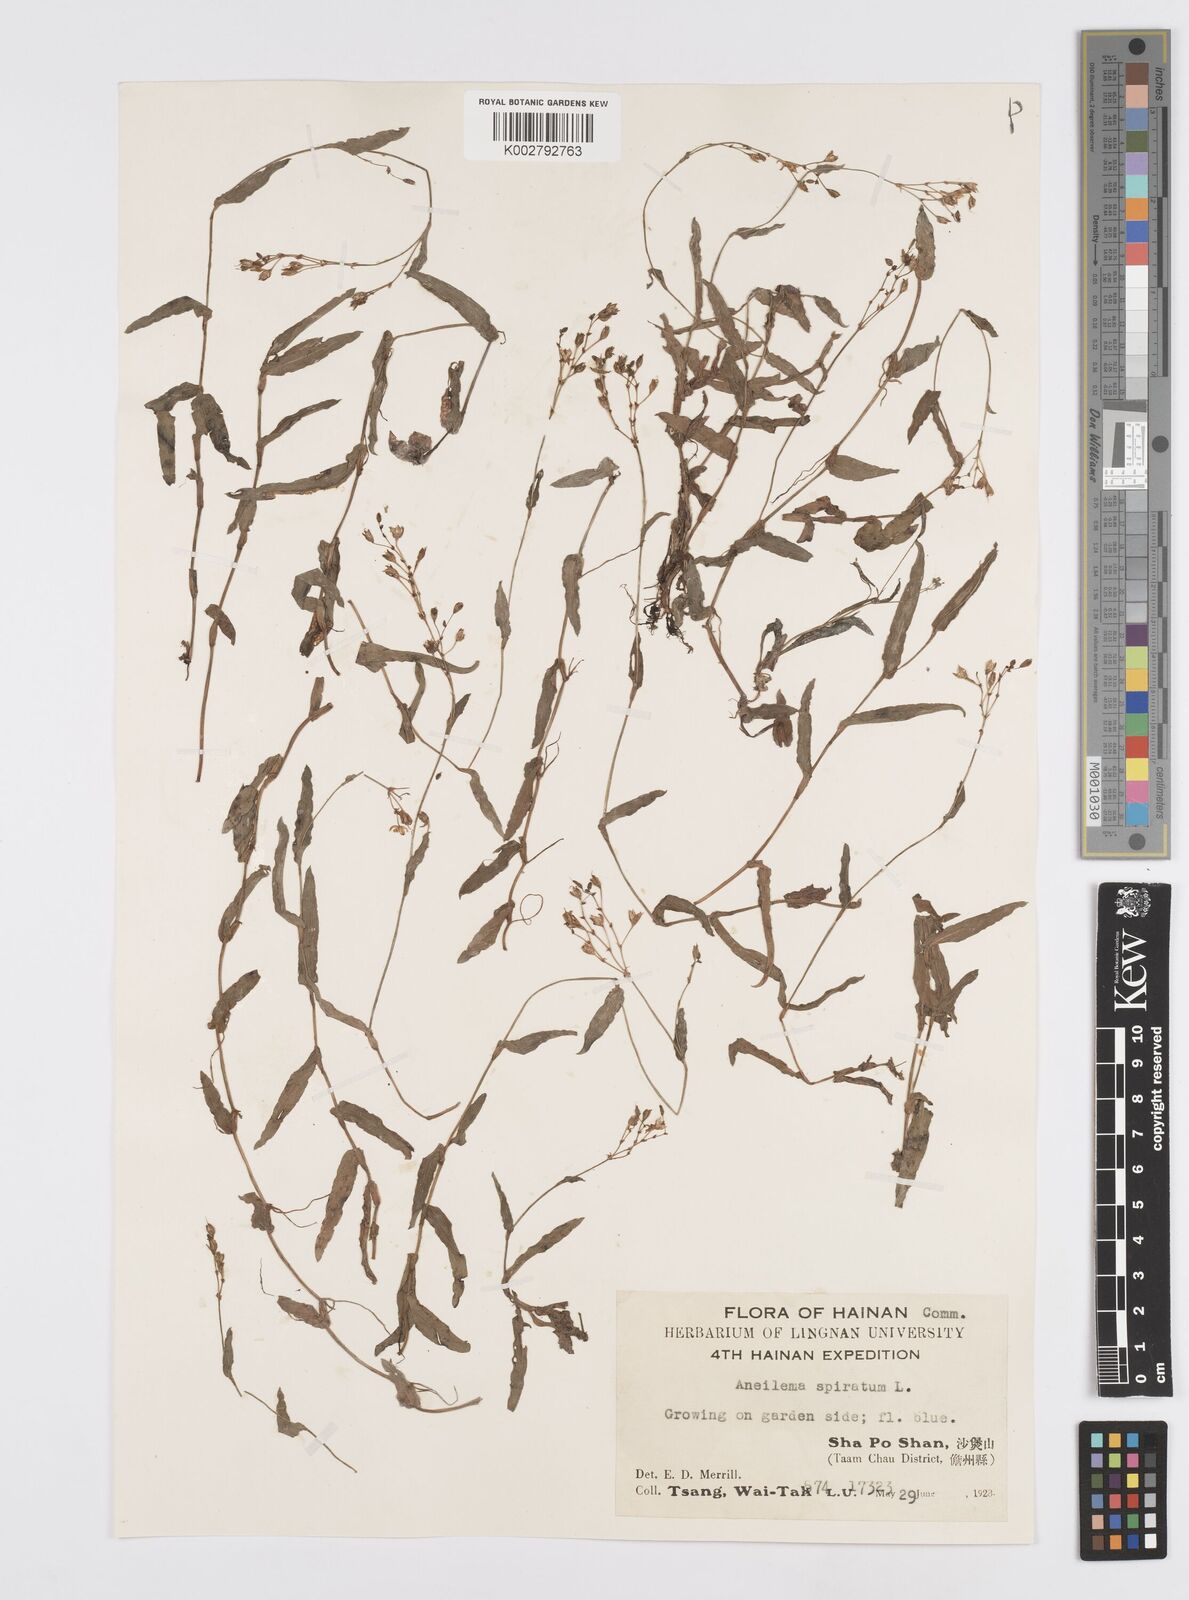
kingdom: Plantae
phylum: Tracheophyta
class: Liliopsida
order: Commelinales
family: Commelinaceae
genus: Murdannia
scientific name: Murdannia
